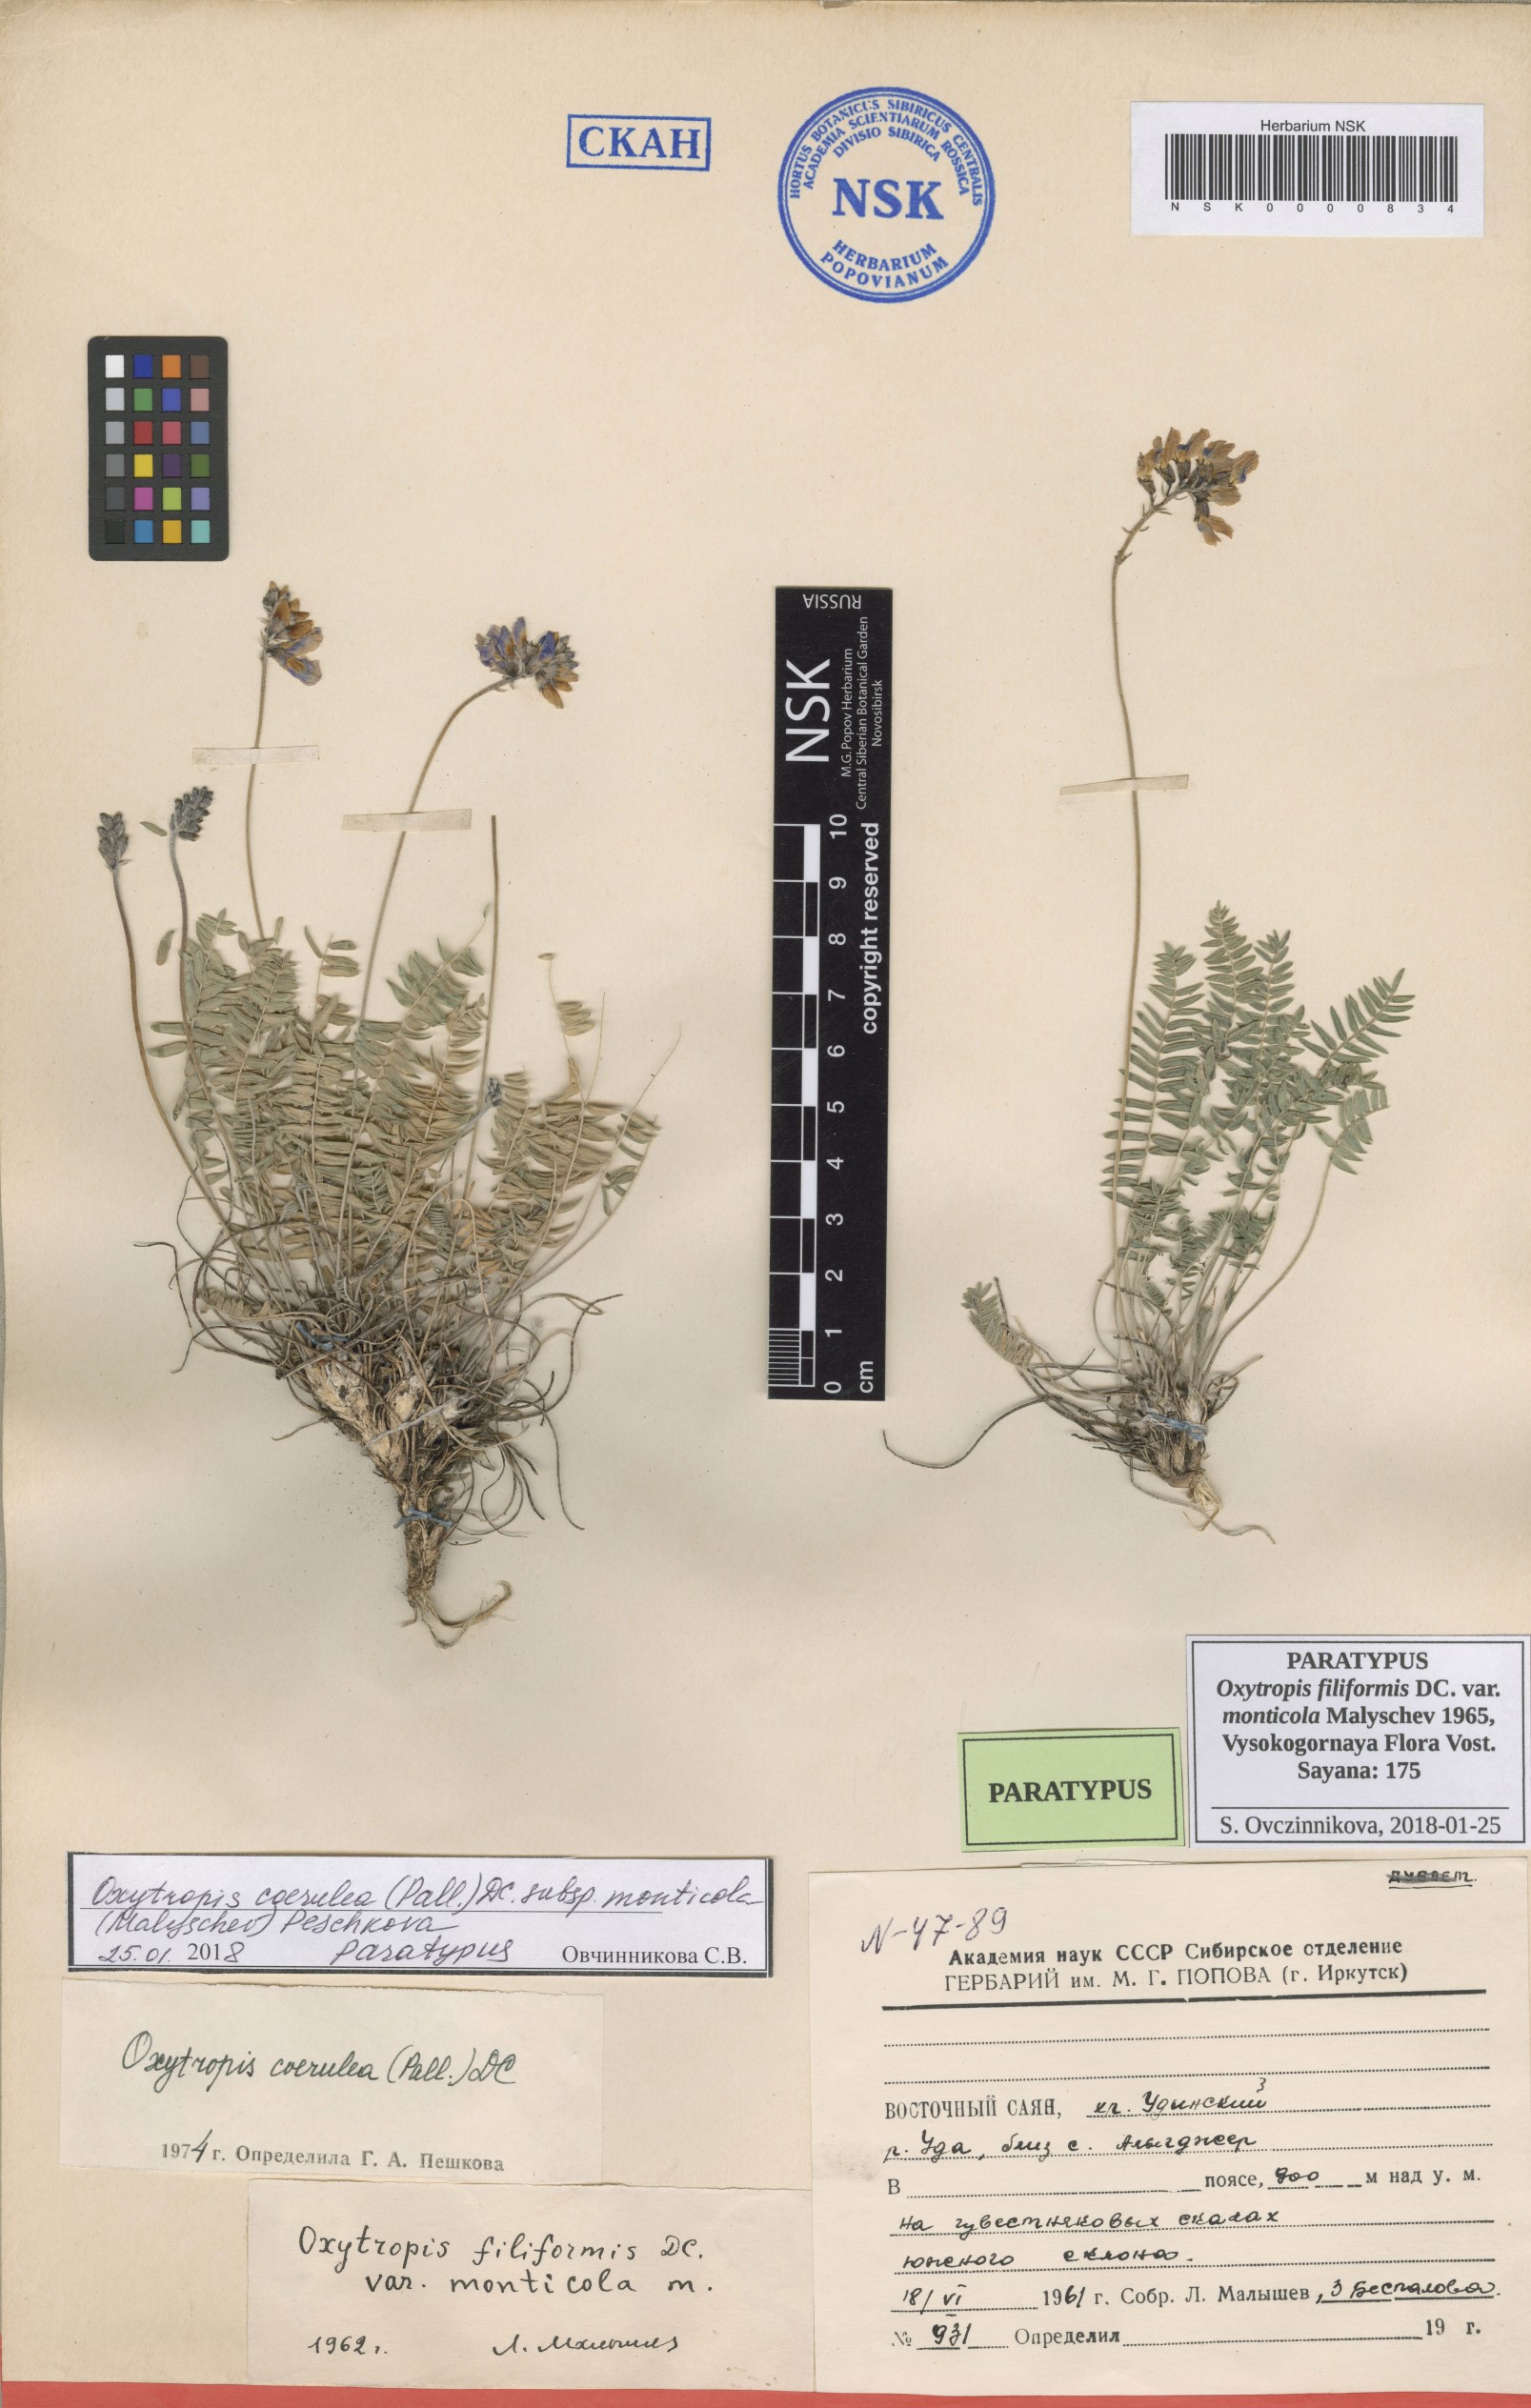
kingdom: Plantae
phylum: Tracheophyta
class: Magnoliopsida
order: Fabales
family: Fabaceae
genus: Oxytropis
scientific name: Oxytropis coerulea
